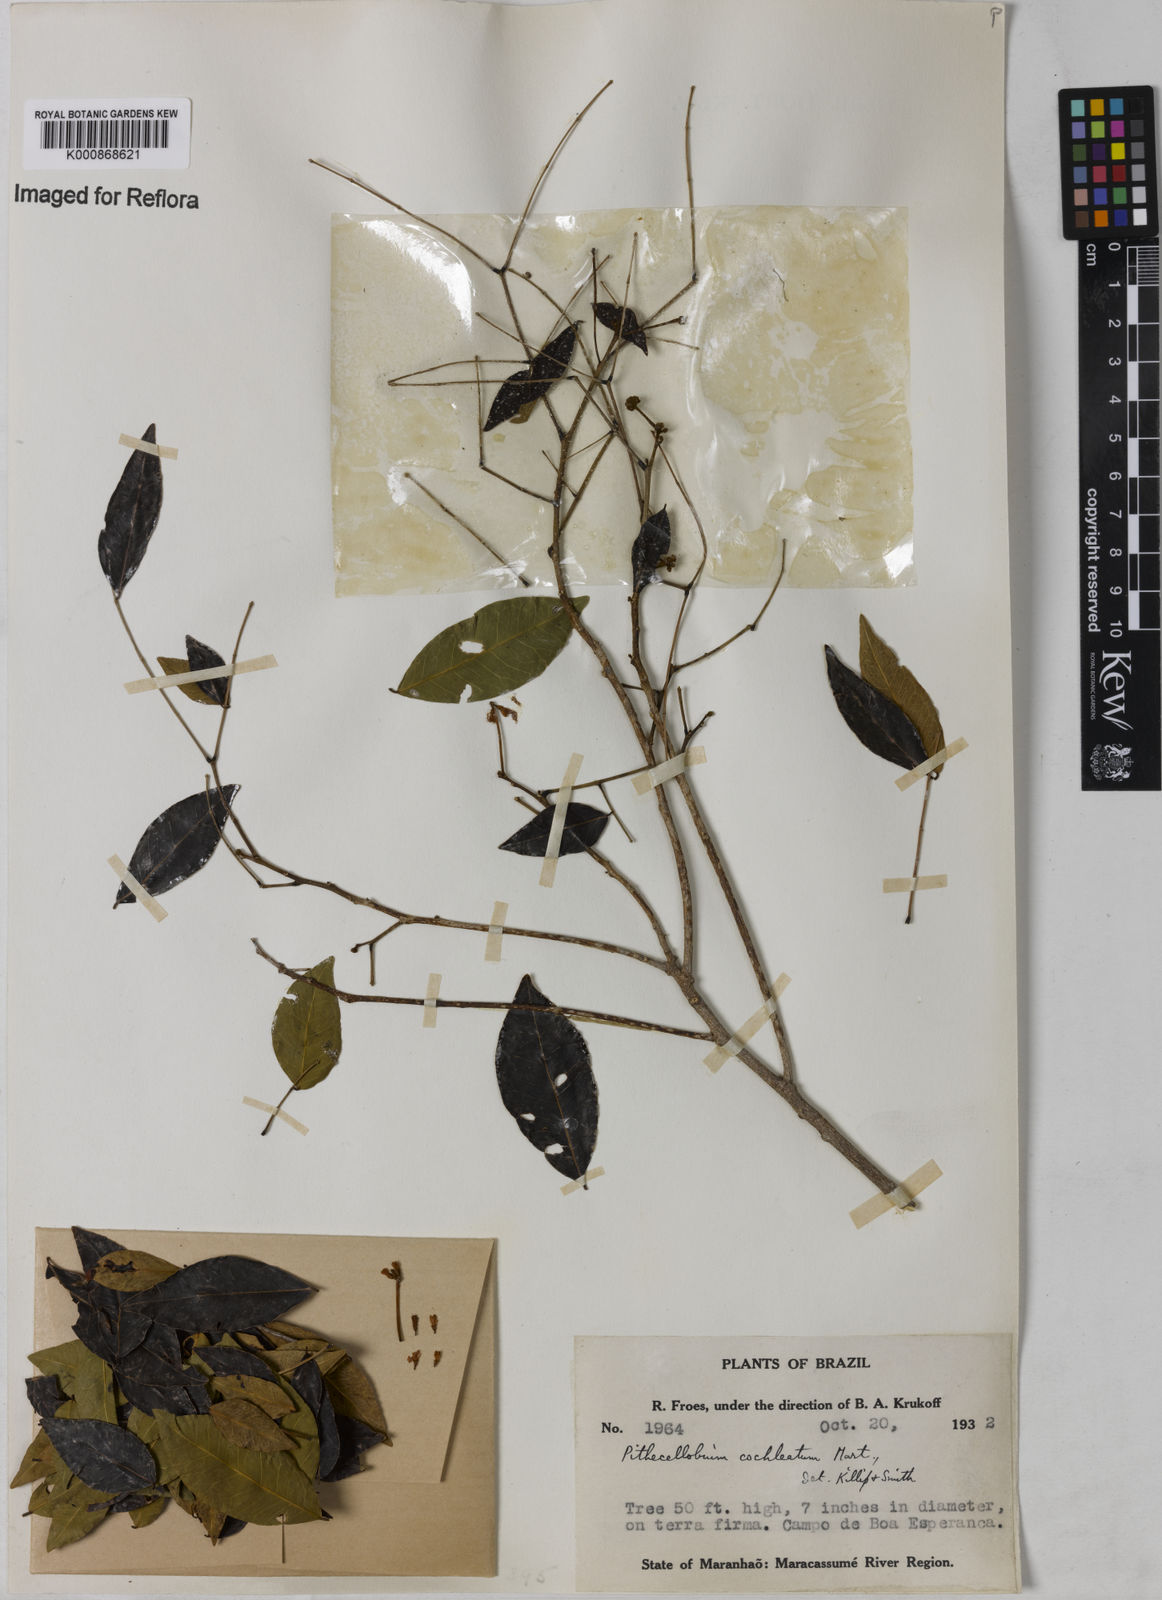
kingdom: Plantae
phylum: Tracheophyta
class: Magnoliopsida
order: Fabales
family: Fabaceae
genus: Jupunba
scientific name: Jupunba cochleata
